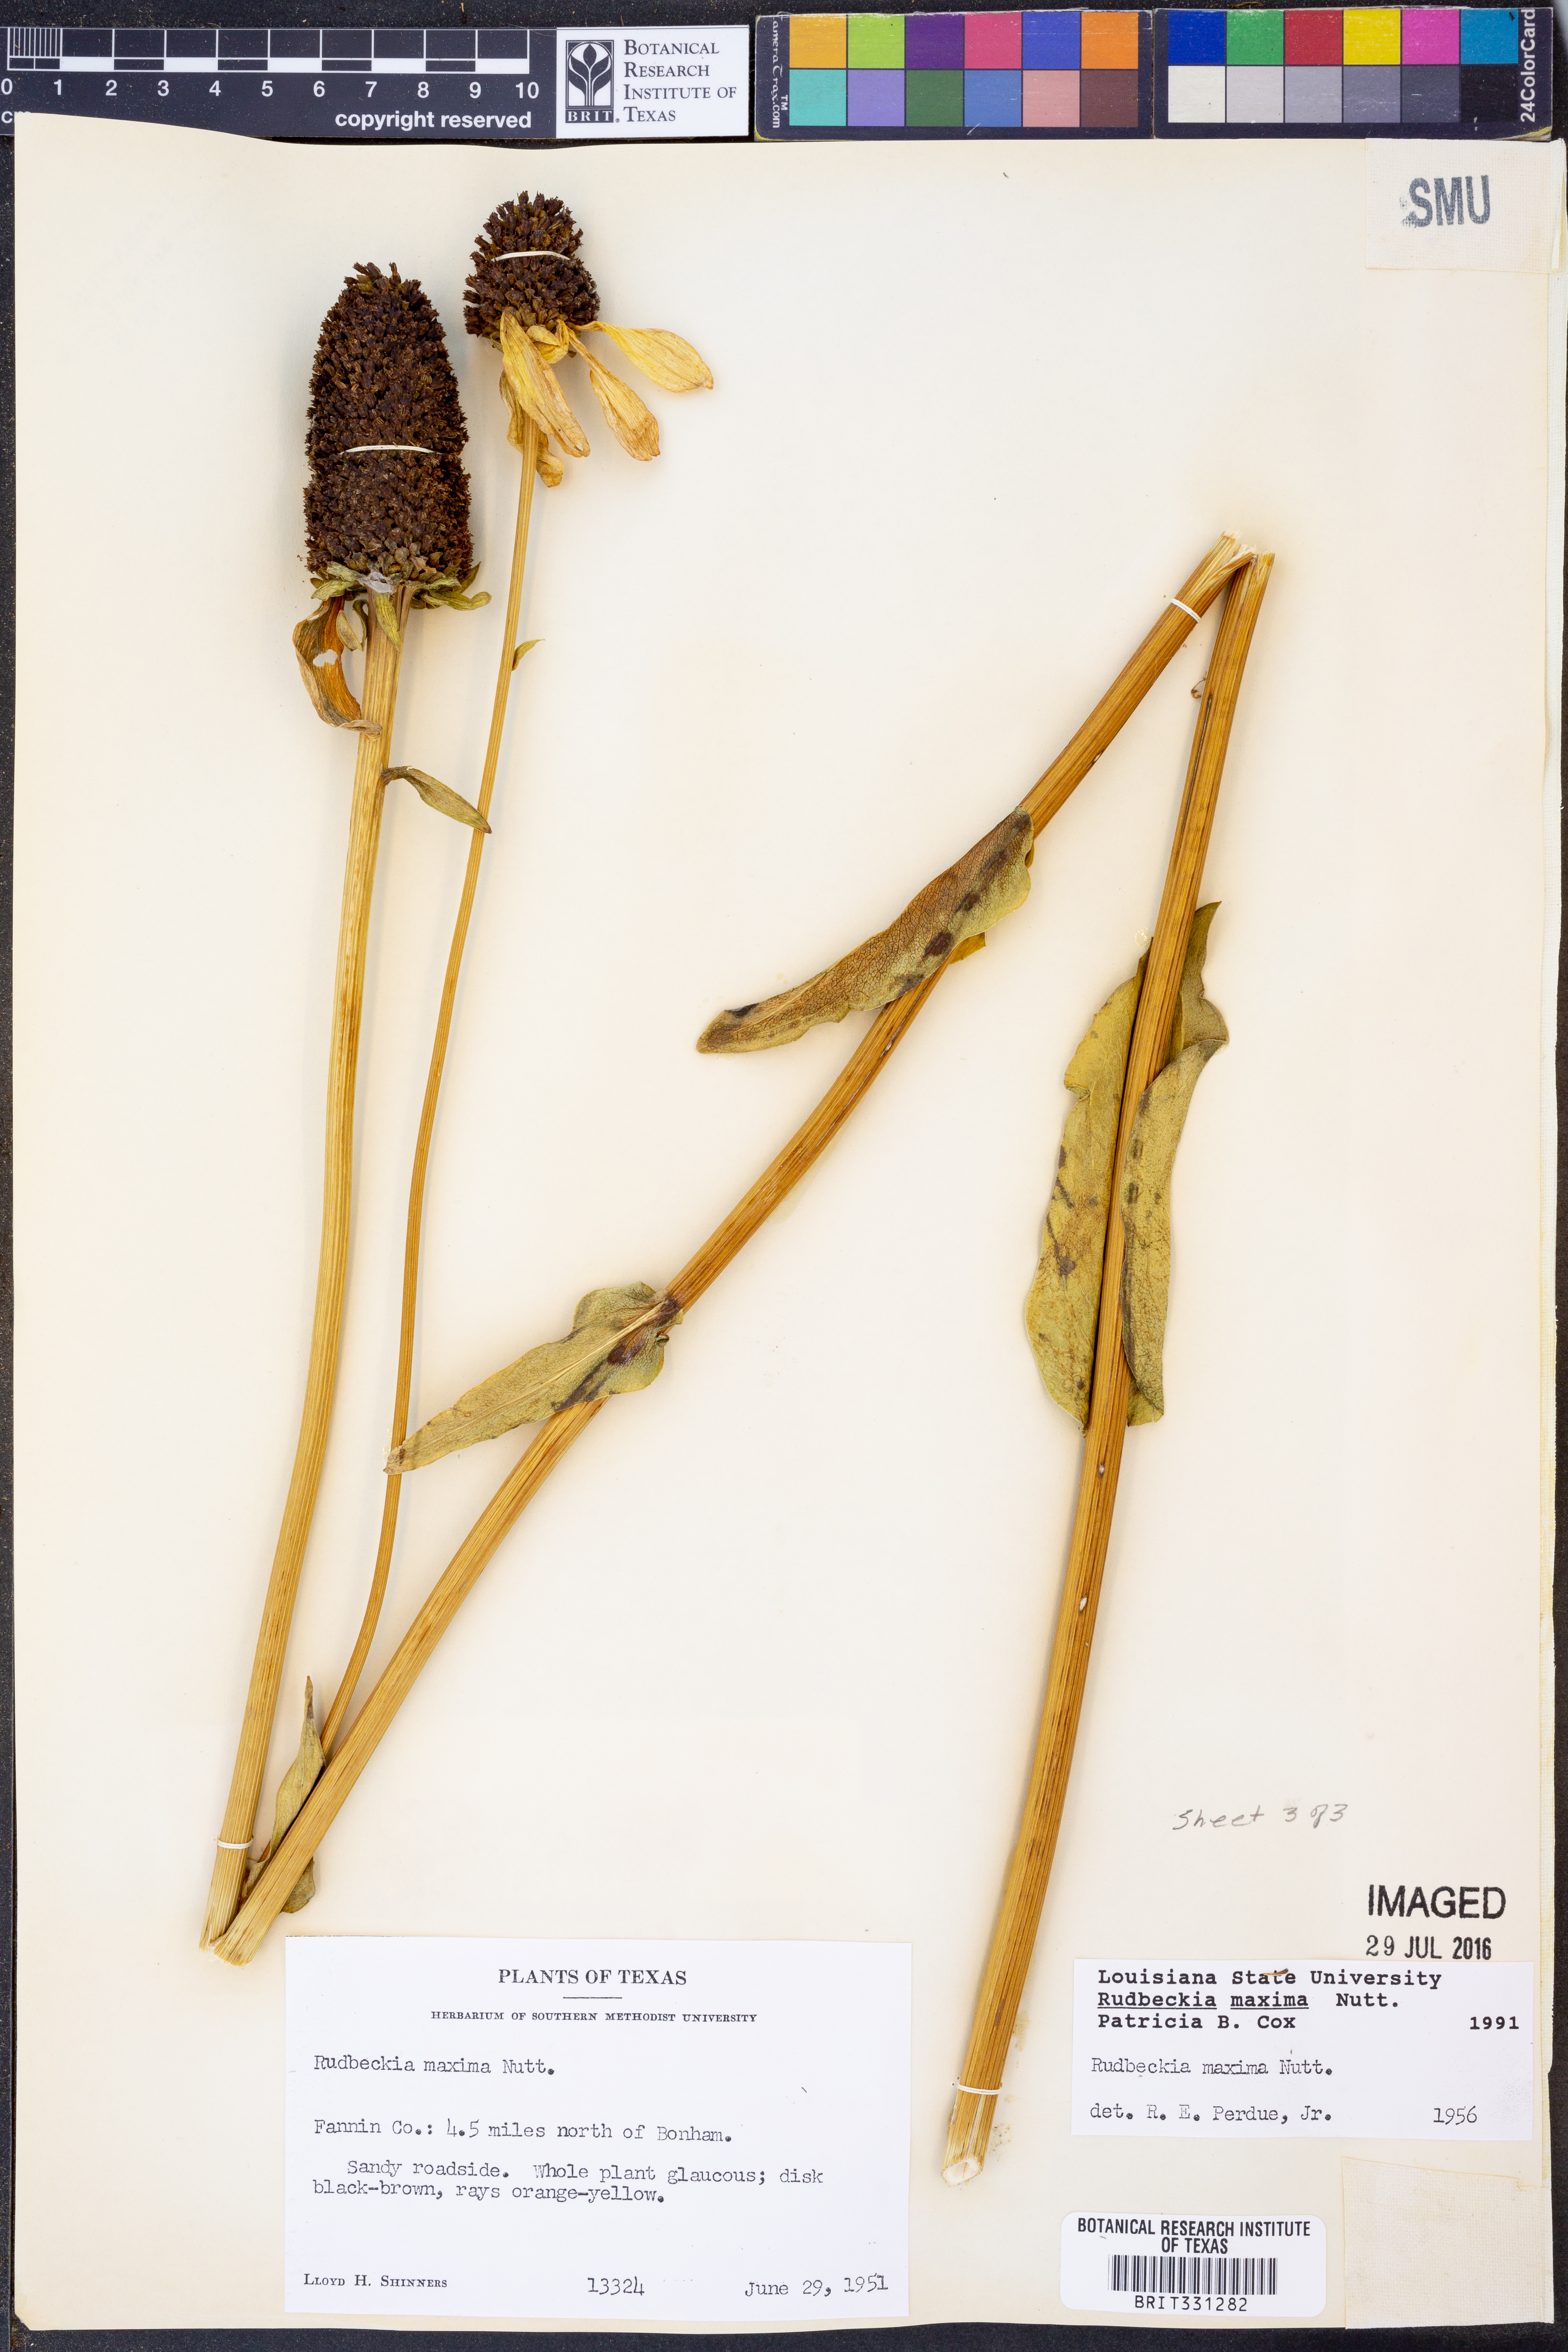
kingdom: Plantae
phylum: Tracheophyta
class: Magnoliopsida
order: Asterales
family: Asteraceae
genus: Rudbeckia
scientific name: Rudbeckia maxima
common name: Cabbage coneflower
